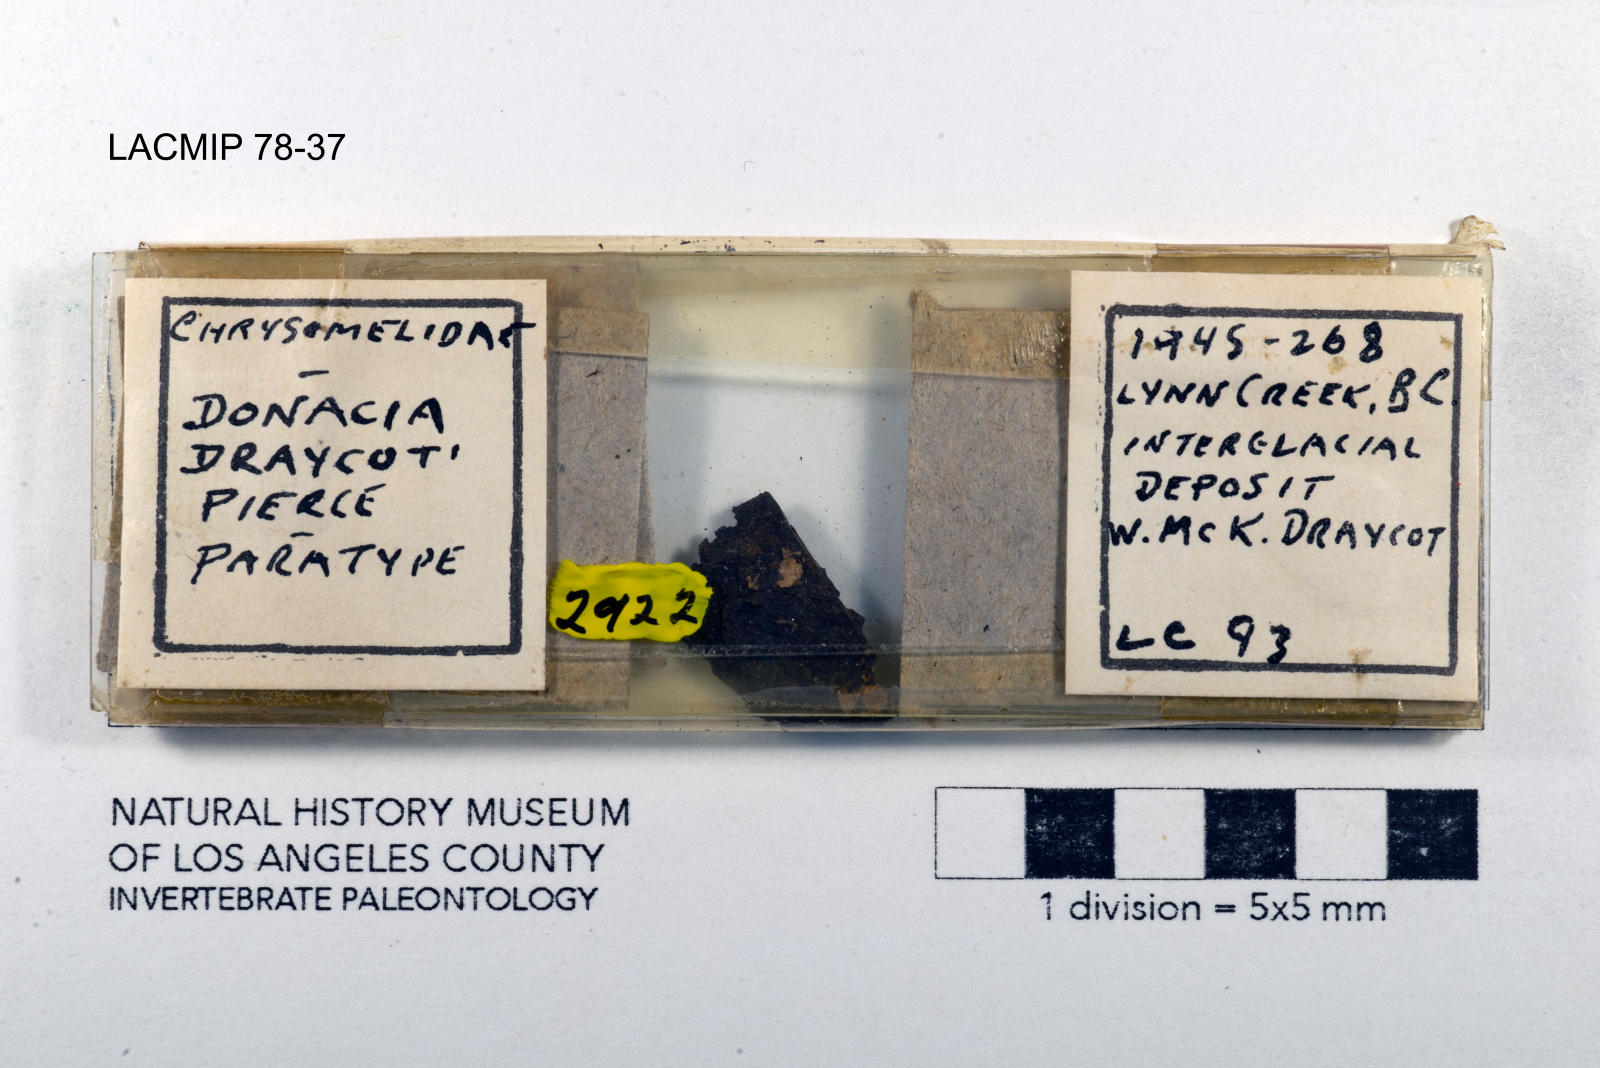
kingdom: Animalia
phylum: Arthropoda
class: Insecta
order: Coleoptera
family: Chrysomelidae
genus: Donacia
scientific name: Donacia draycoti
